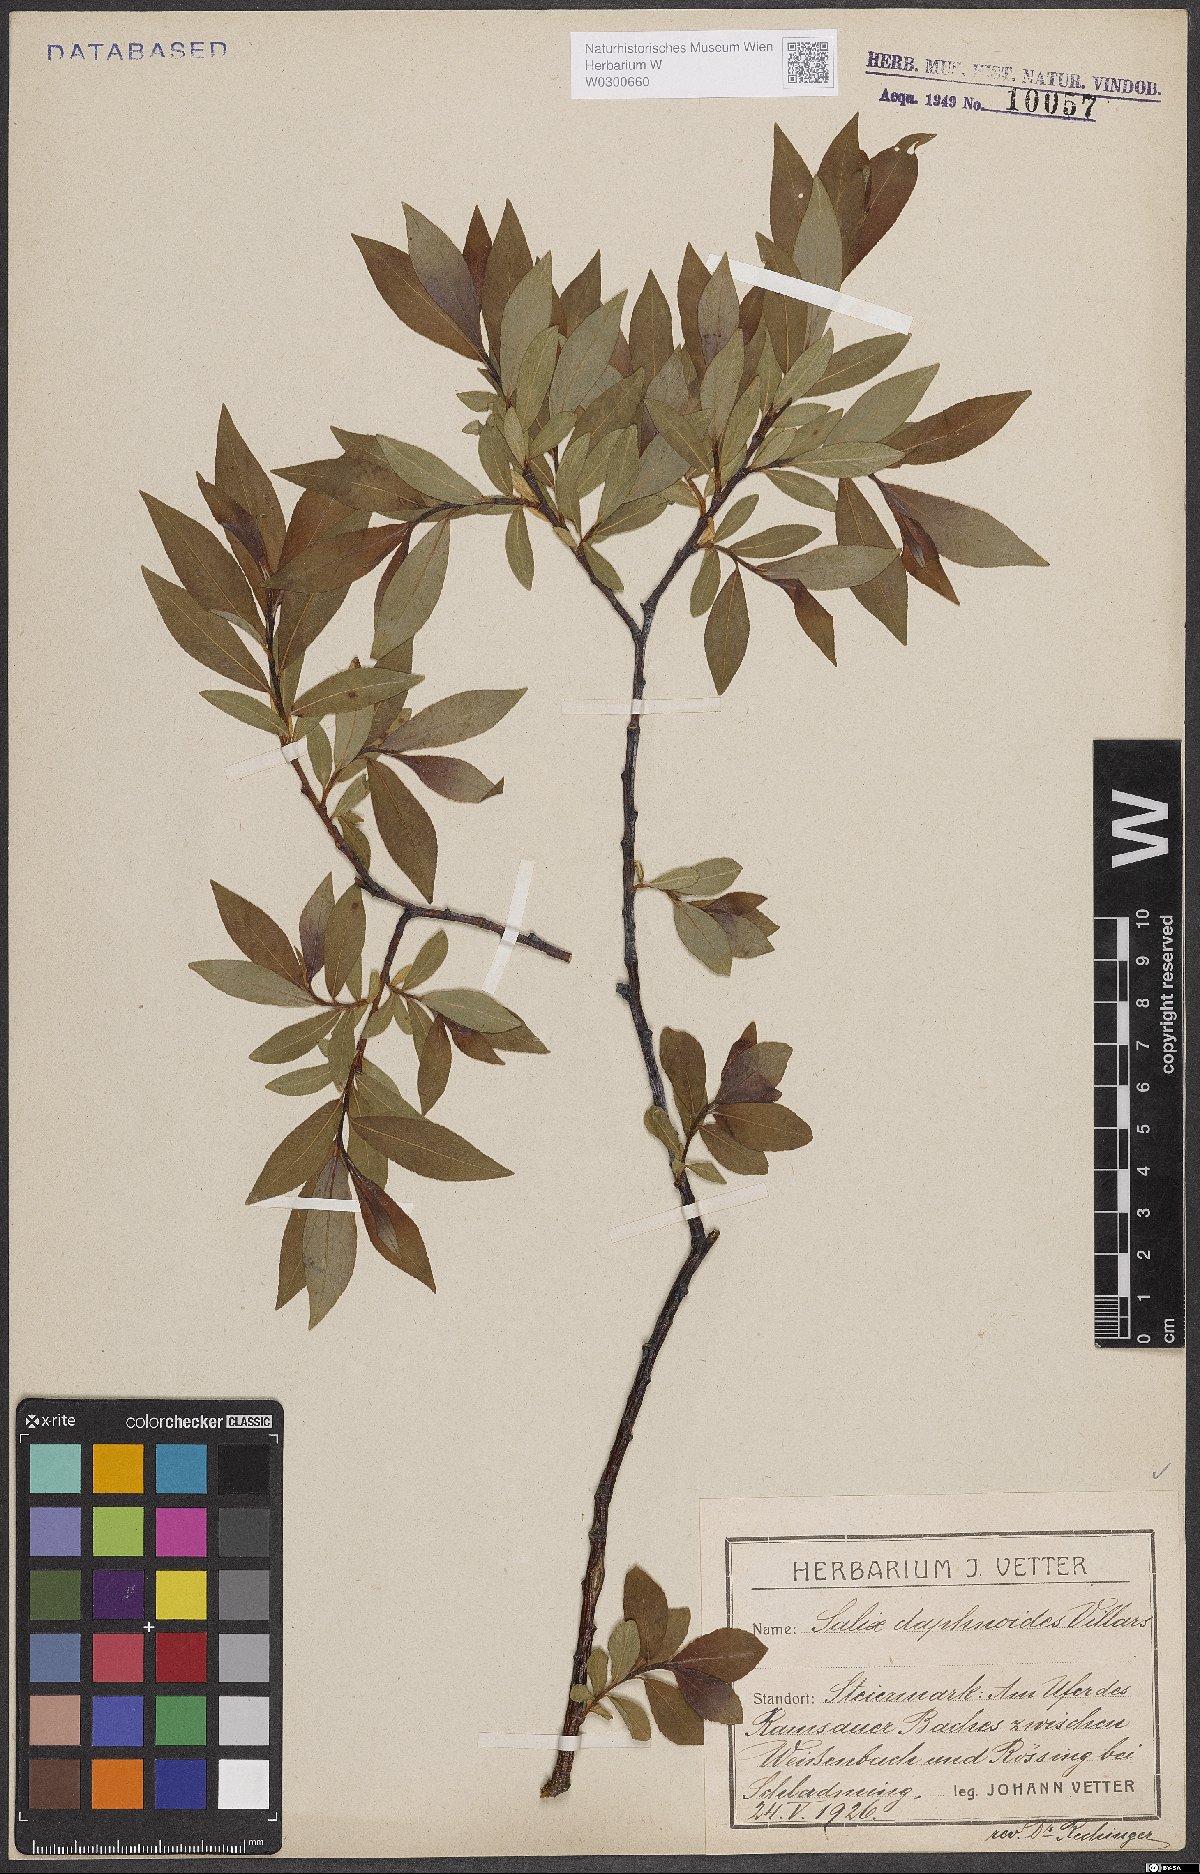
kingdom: Plantae
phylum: Tracheophyta
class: Magnoliopsida
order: Malpighiales
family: Salicaceae
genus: Salix
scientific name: Salix daphnoides
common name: European violet-willow
